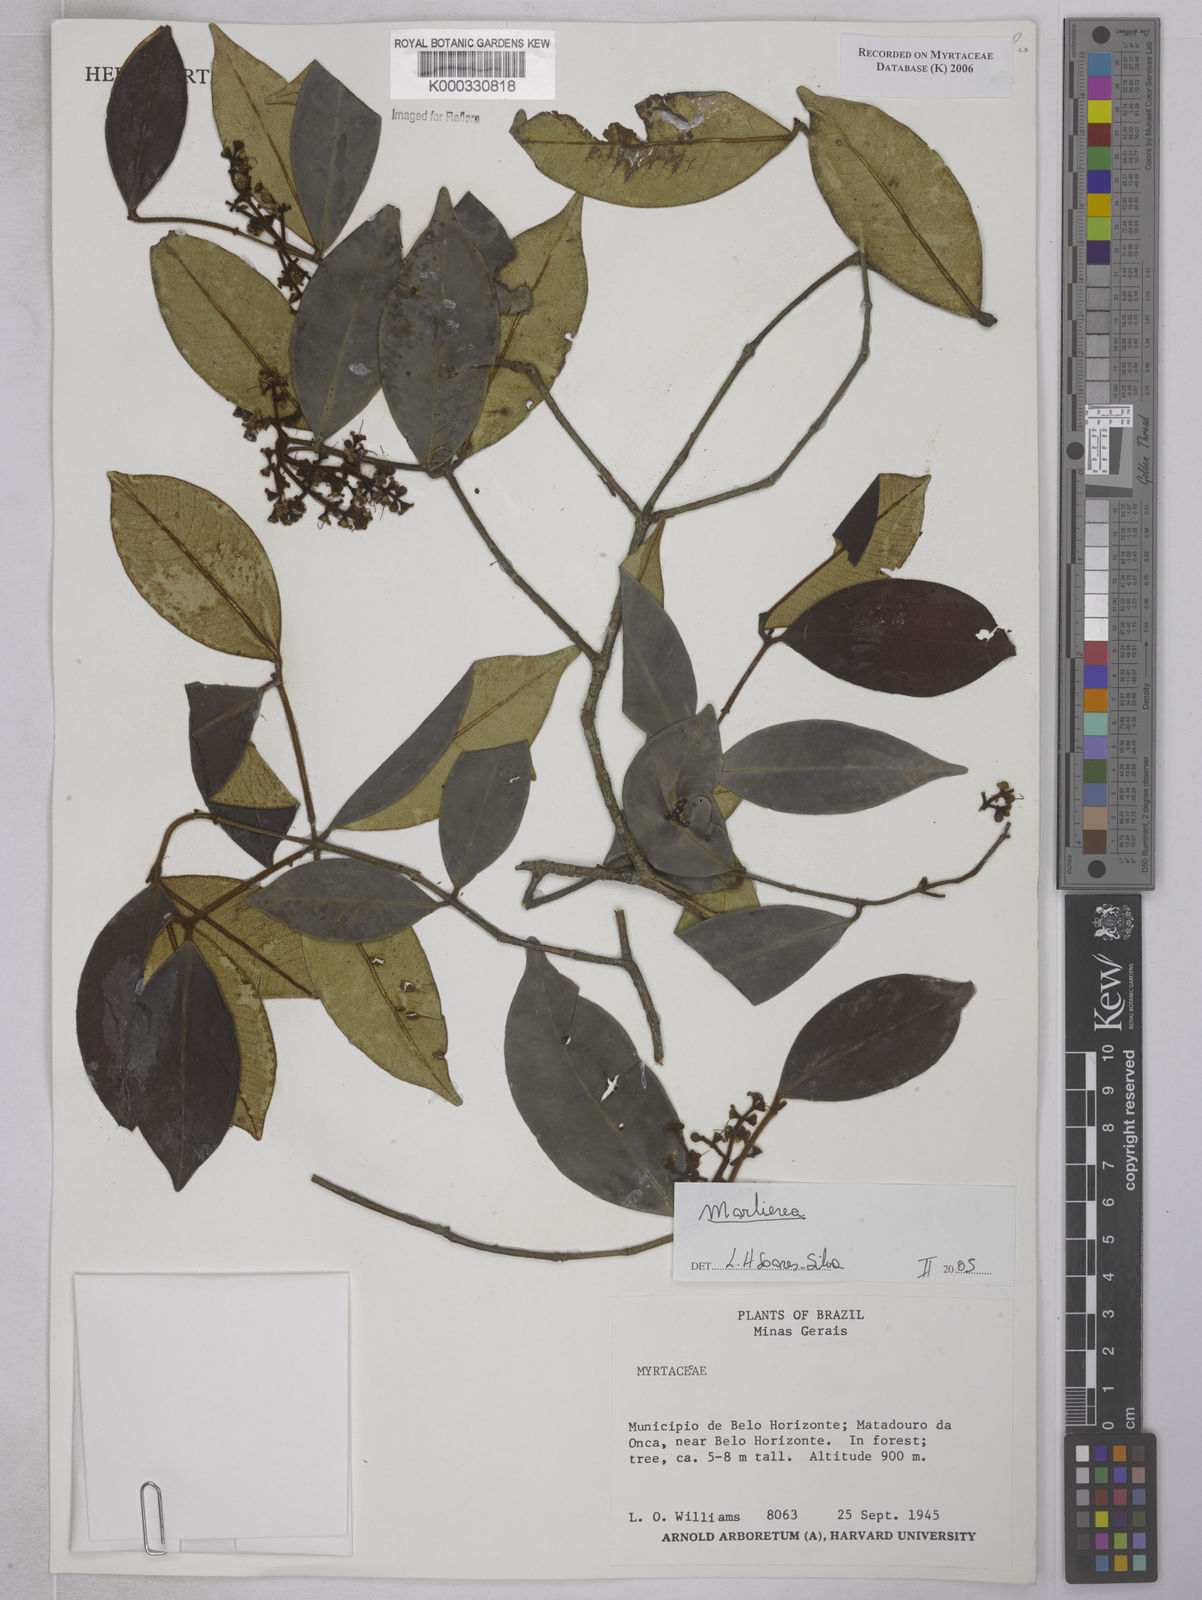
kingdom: Plantae
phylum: Tracheophyta
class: Magnoliopsida
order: Myrtales
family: Myrtaceae
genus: Marlierea
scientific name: Marlierea clausseniana
